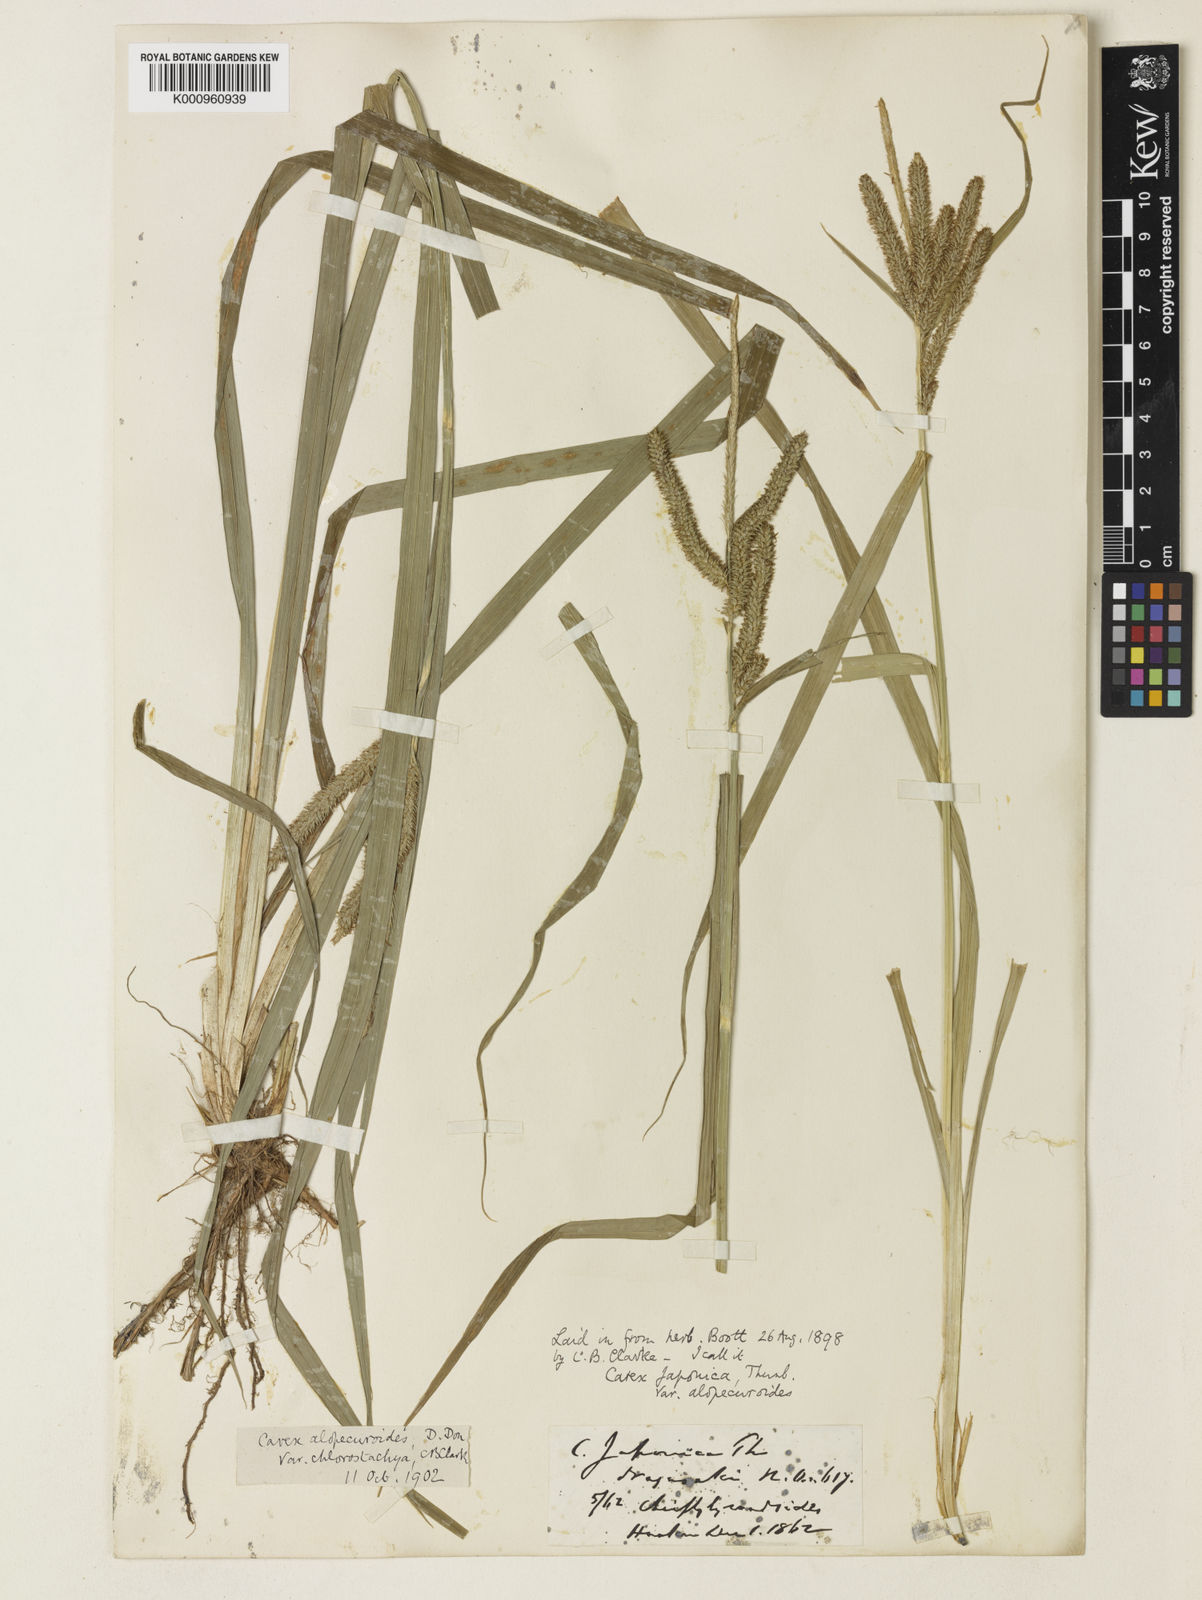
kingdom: Plantae
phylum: Tracheophyta
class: Liliopsida
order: Poales
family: Cyperaceae
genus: Carex
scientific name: Carex japonica
